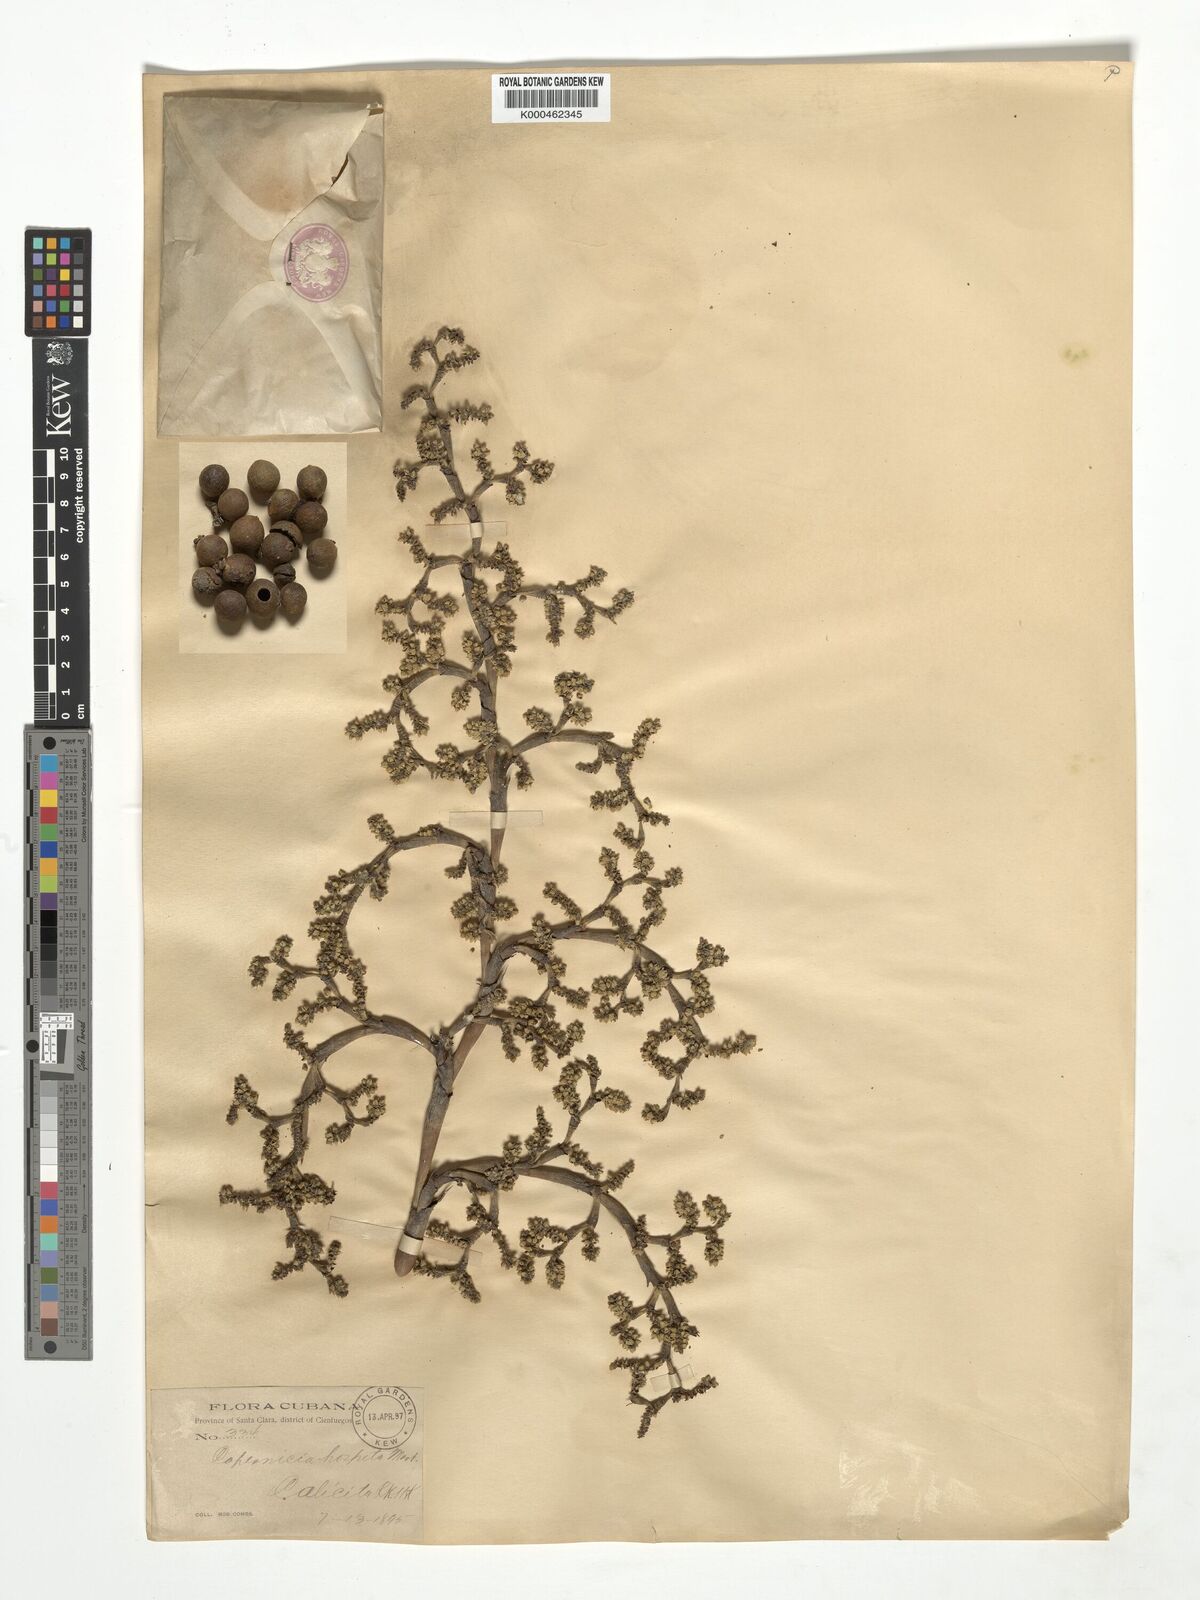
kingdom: Plantae
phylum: Tracheophyta
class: Liliopsida
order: Arecales
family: Arecaceae
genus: Copernicia
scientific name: Copernicia hospita
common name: Cubam palm
